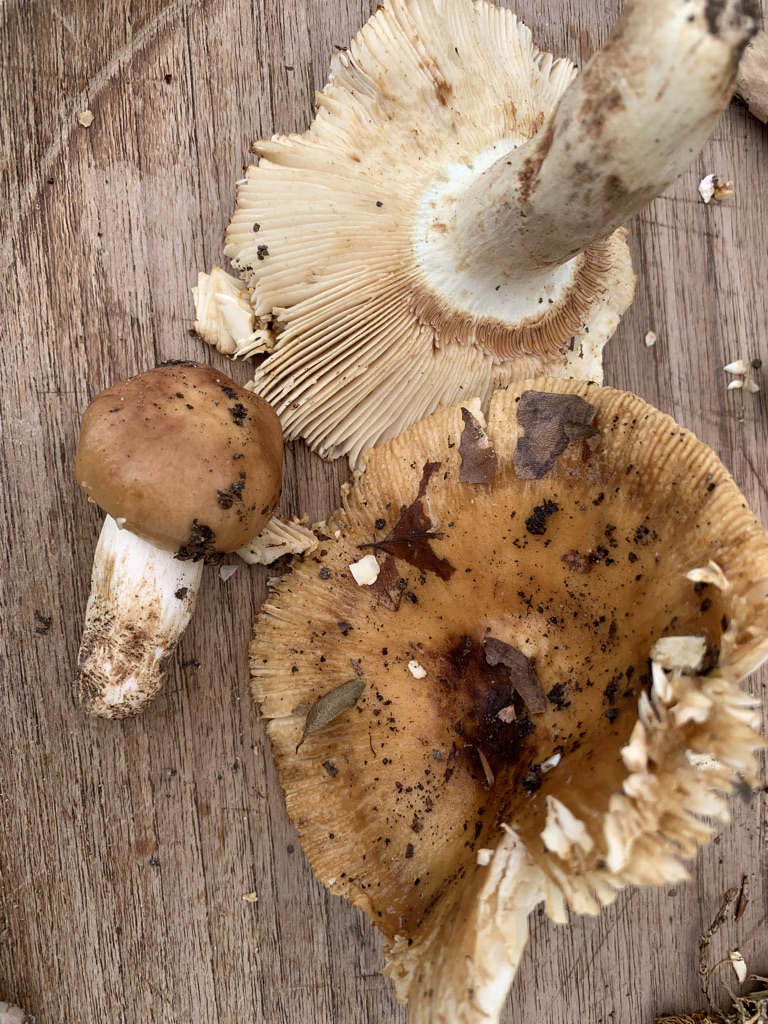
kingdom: Fungi
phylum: Basidiomycota
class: Agaricomycetes
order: Russulales
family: Russulaceae
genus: Russula
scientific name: Russula grata
